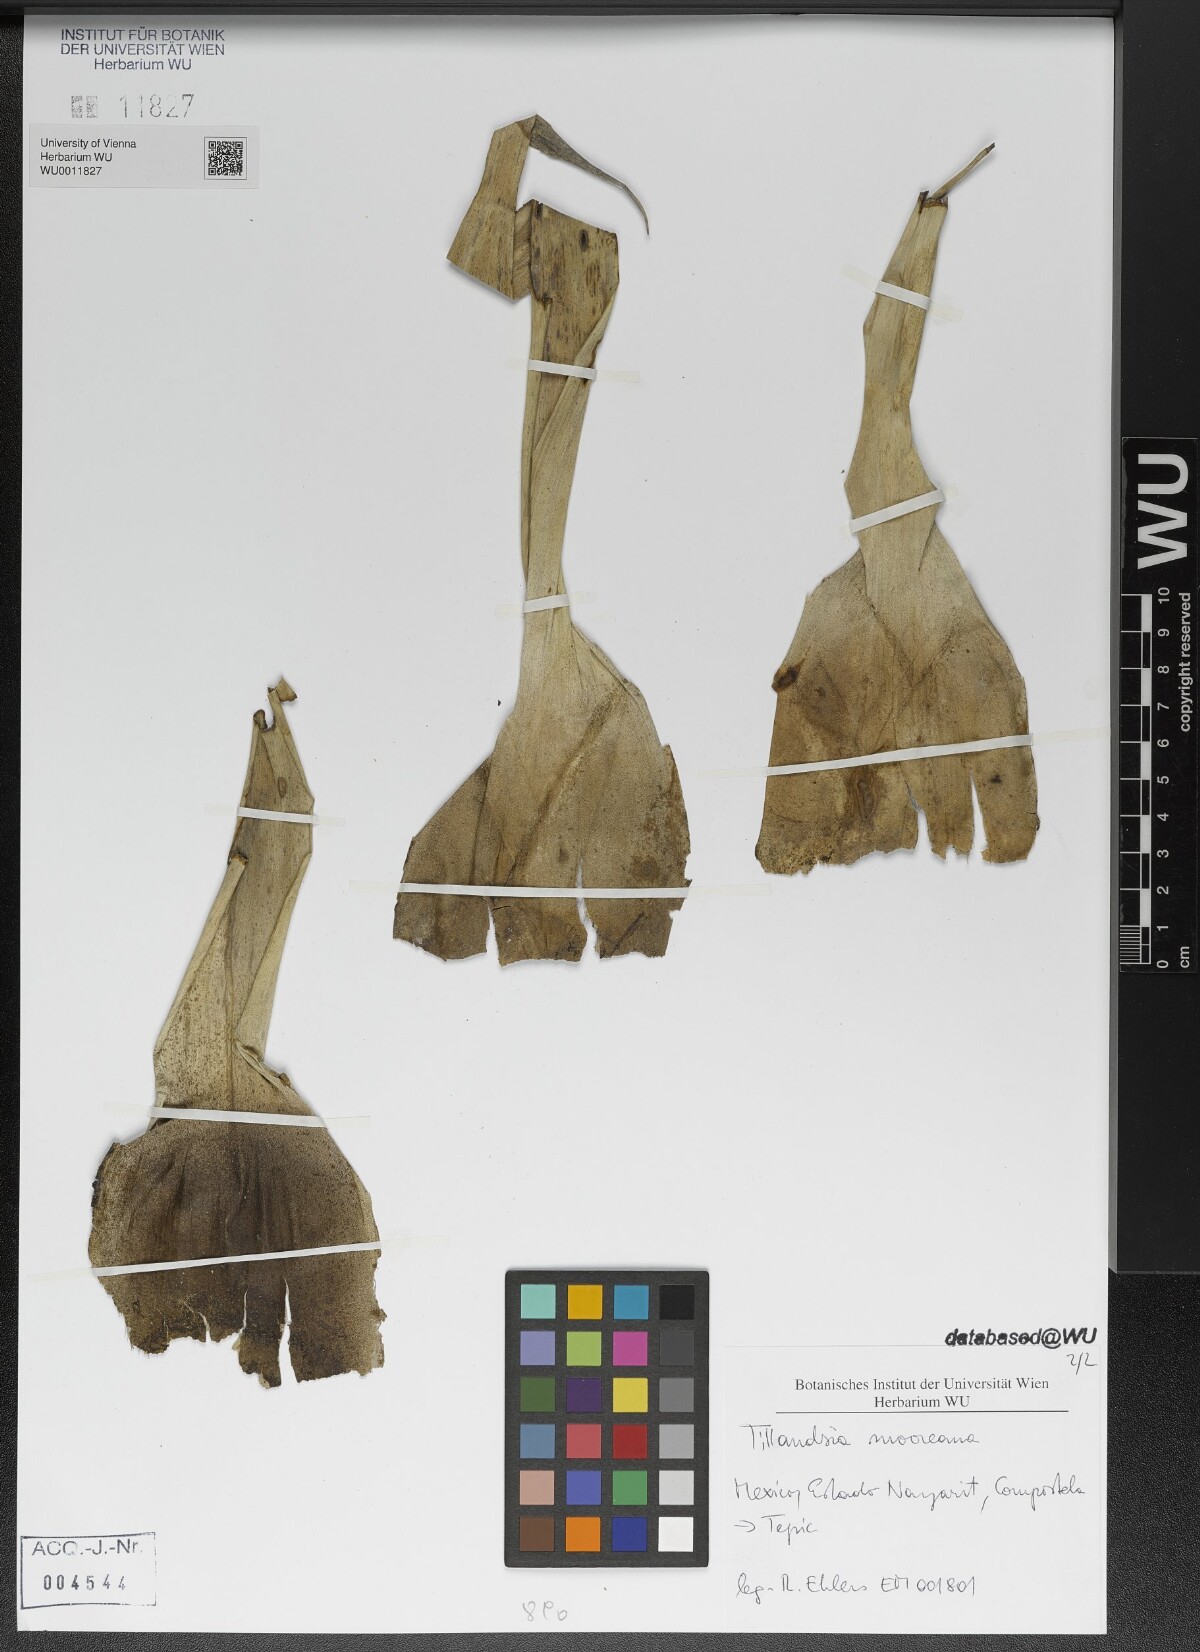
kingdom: Plantae
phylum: Tracheophyta
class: Liliopsida
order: Poales
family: Bromeliaceae
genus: Tillandsia
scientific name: Tillandsia mooreana
